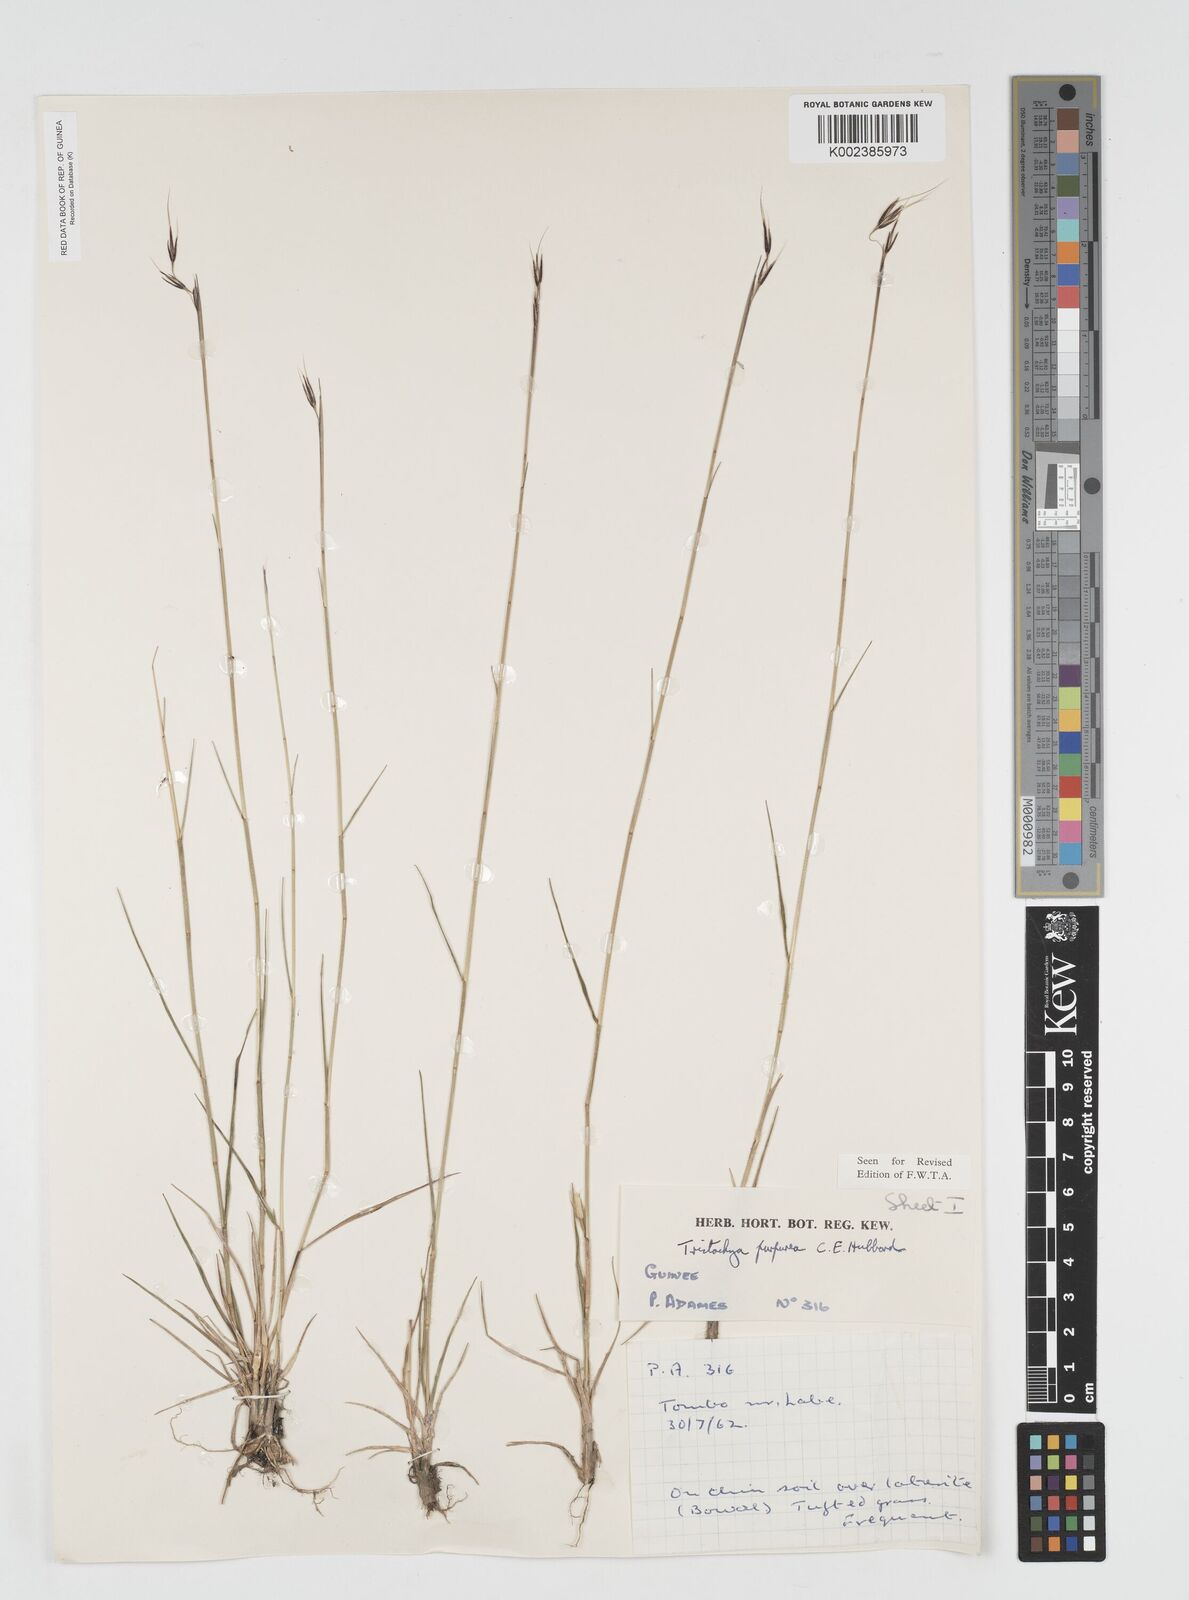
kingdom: Plantae
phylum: Tracheophyta
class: Liliopsida
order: Poales
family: Poaceae
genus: Dilophotriche
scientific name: Dilophotriche tristachyoides
